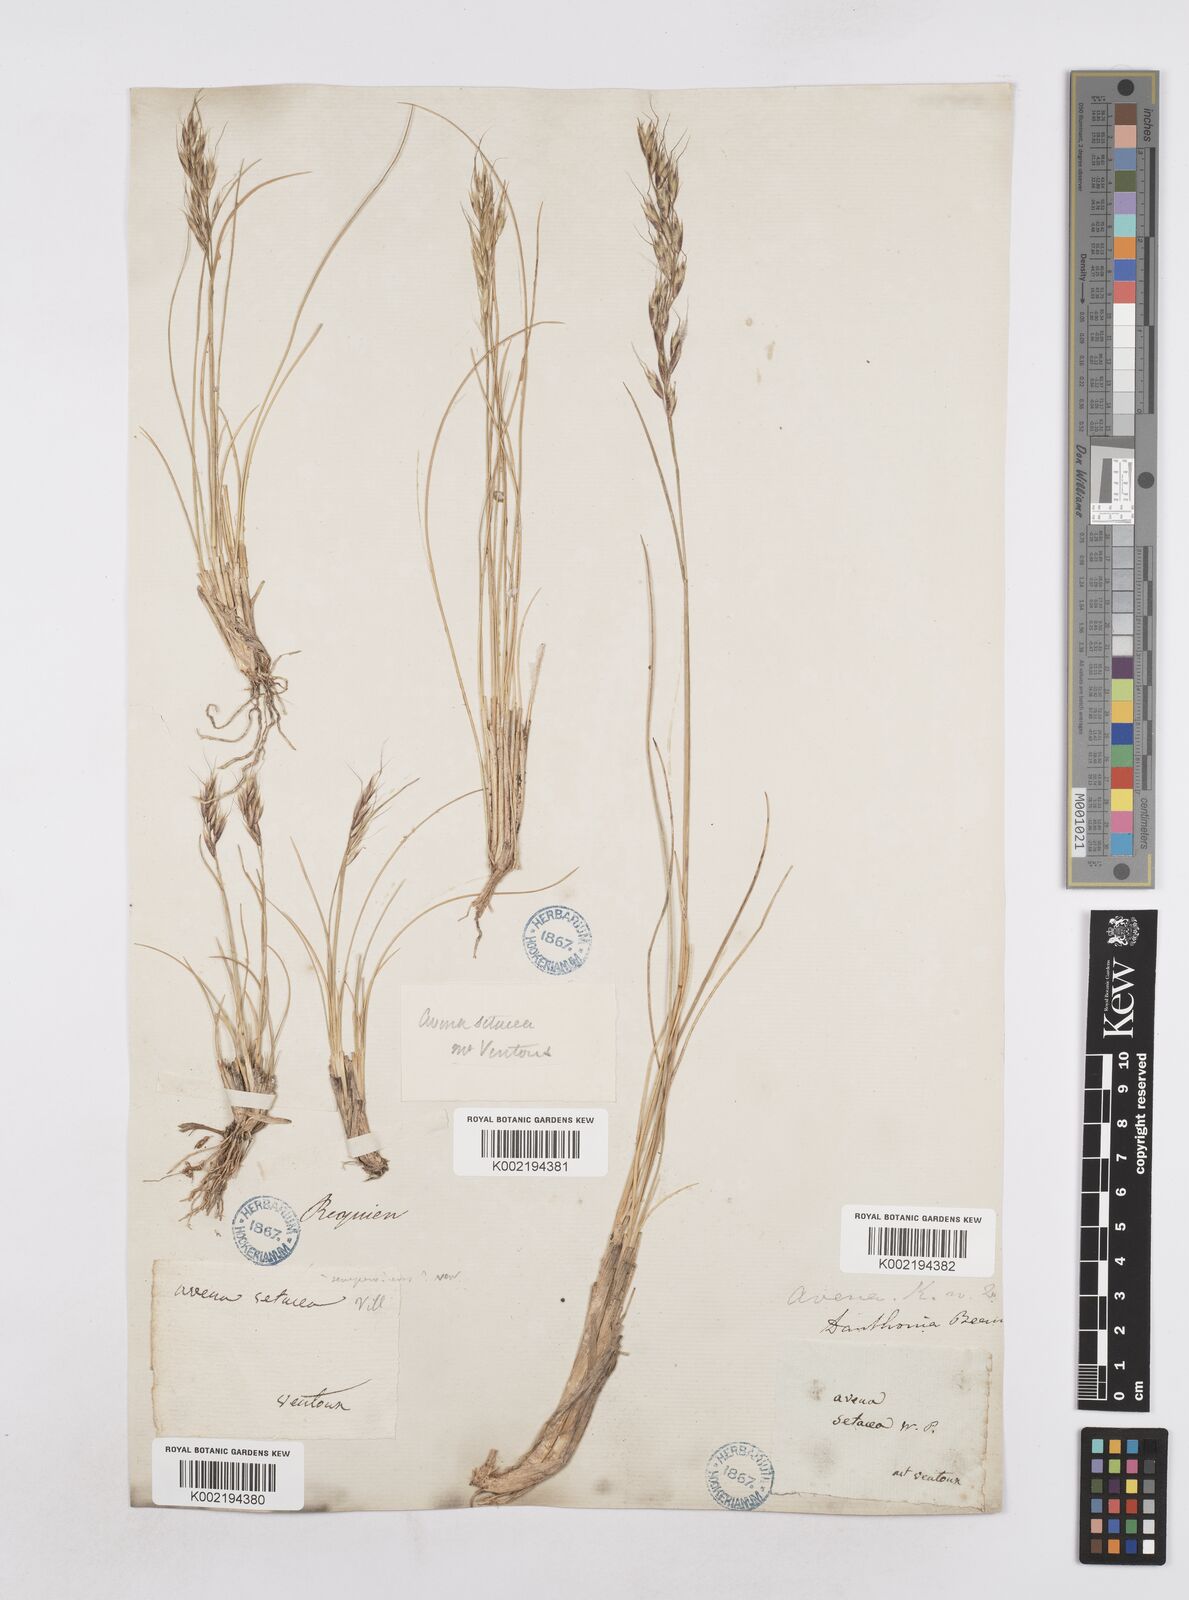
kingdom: Plantae
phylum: Tracheophyta
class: Liliopsida
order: Poales
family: Poaceae
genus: Helictotrichon
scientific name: Helictotrichon setaceum
